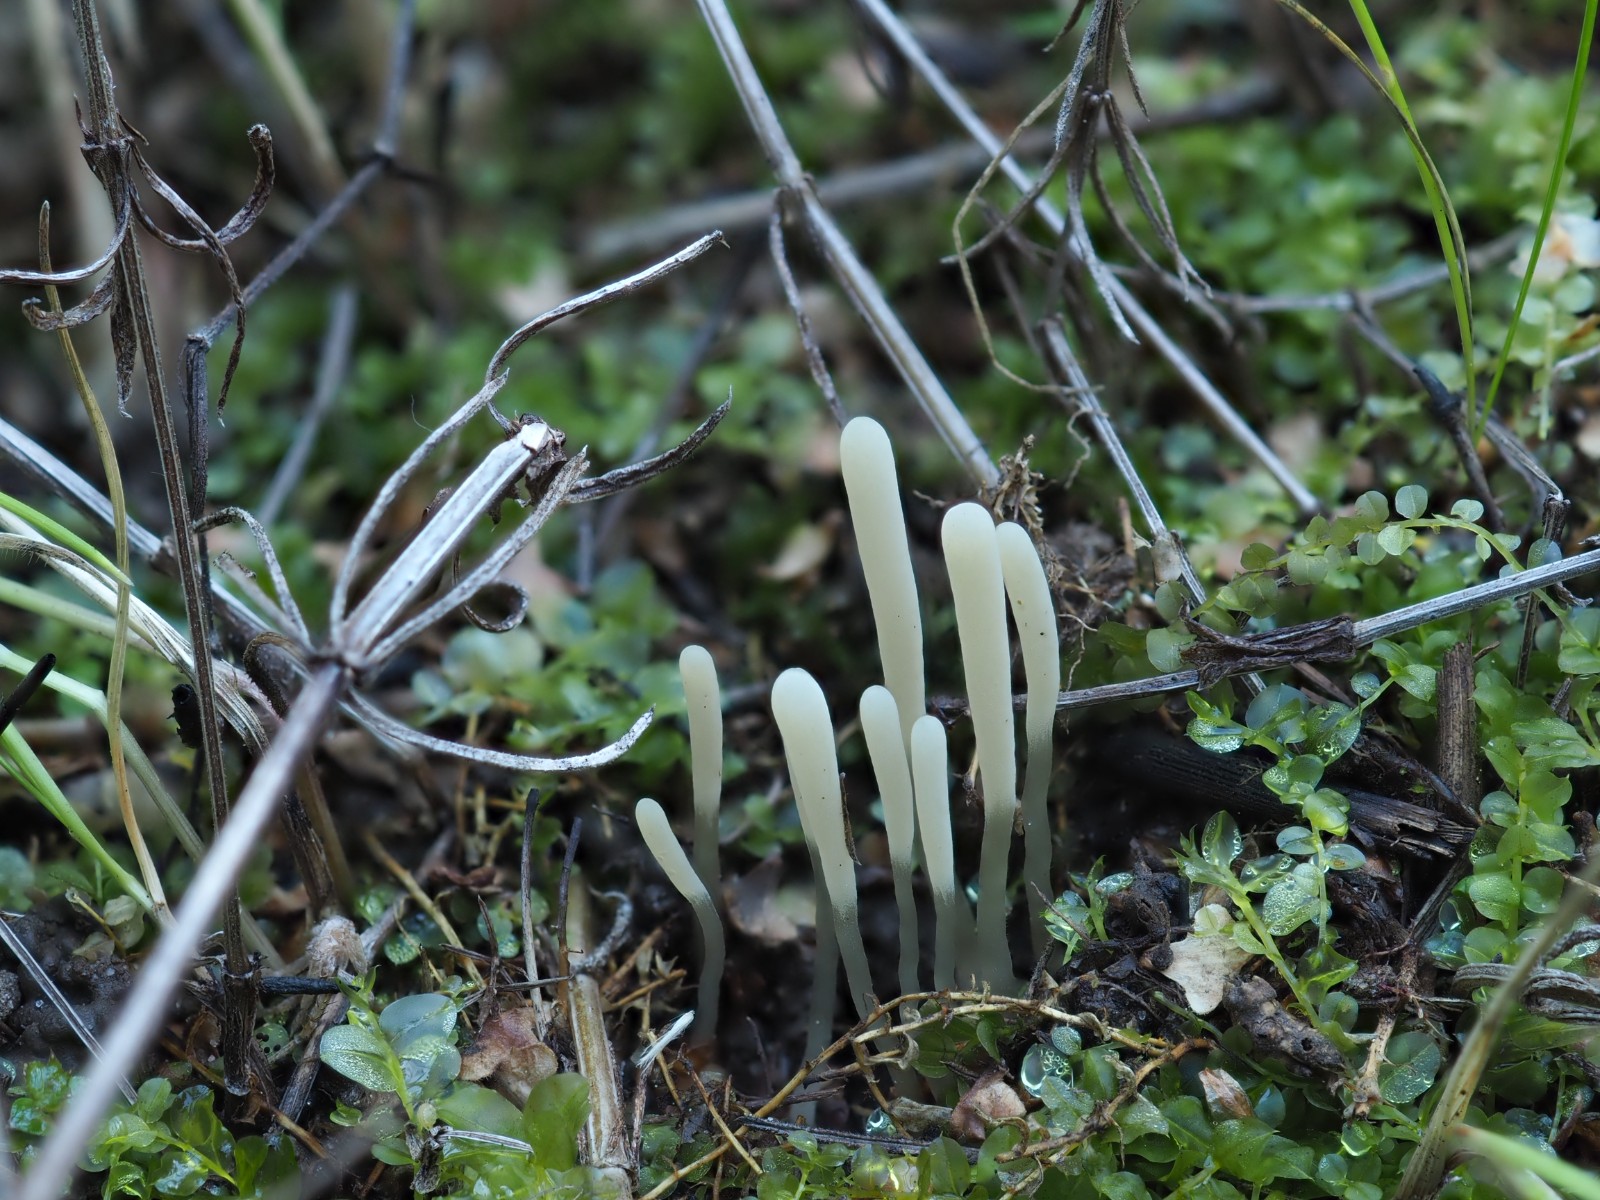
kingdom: Fungi
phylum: Basidiomycota
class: Agaricomycetes
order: Agaricales
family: Clavariaceae
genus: Clavaria
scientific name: Clavaria tenuipes
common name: isabellafarvet køllesvamp
